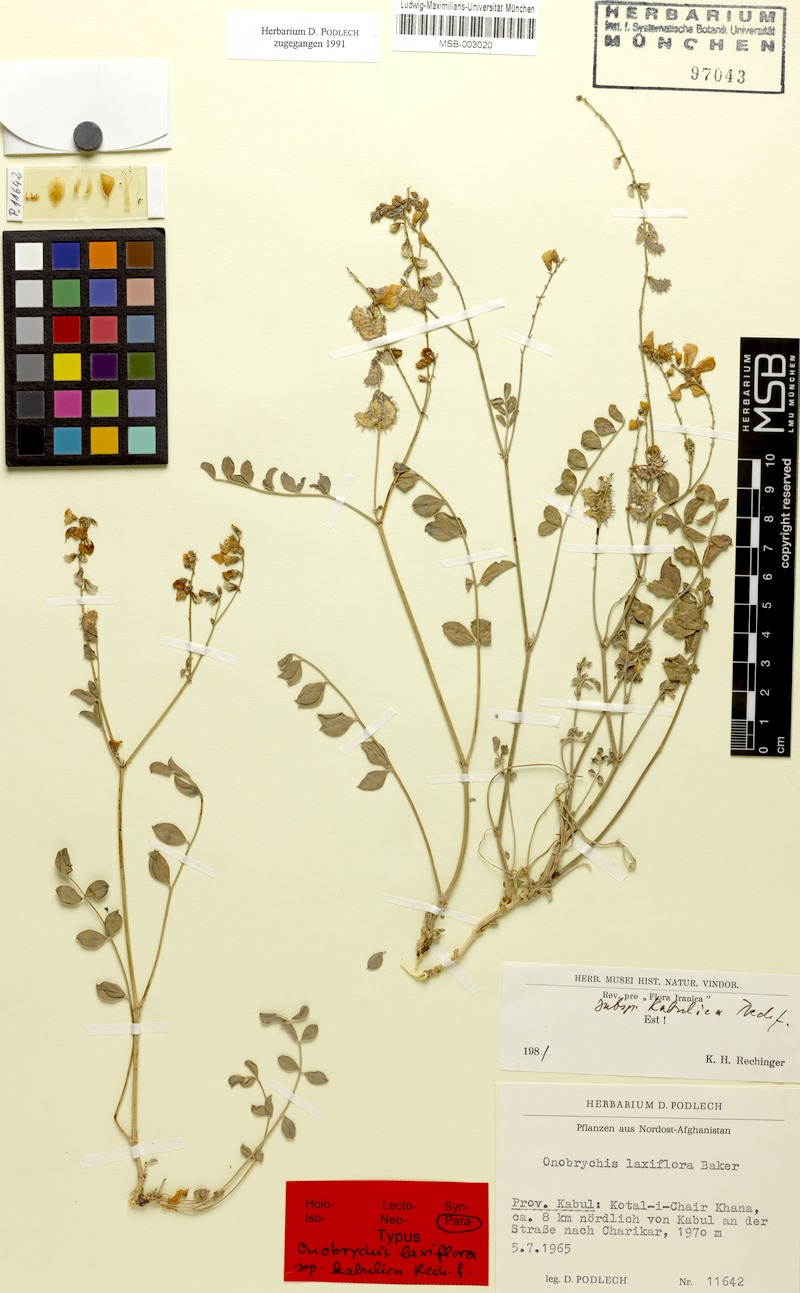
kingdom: Plantae
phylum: Tracheophyta
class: Magnoliopsida
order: Fabales
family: Fabaceae
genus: Onobrychis
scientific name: Onobrychis laxiflora
